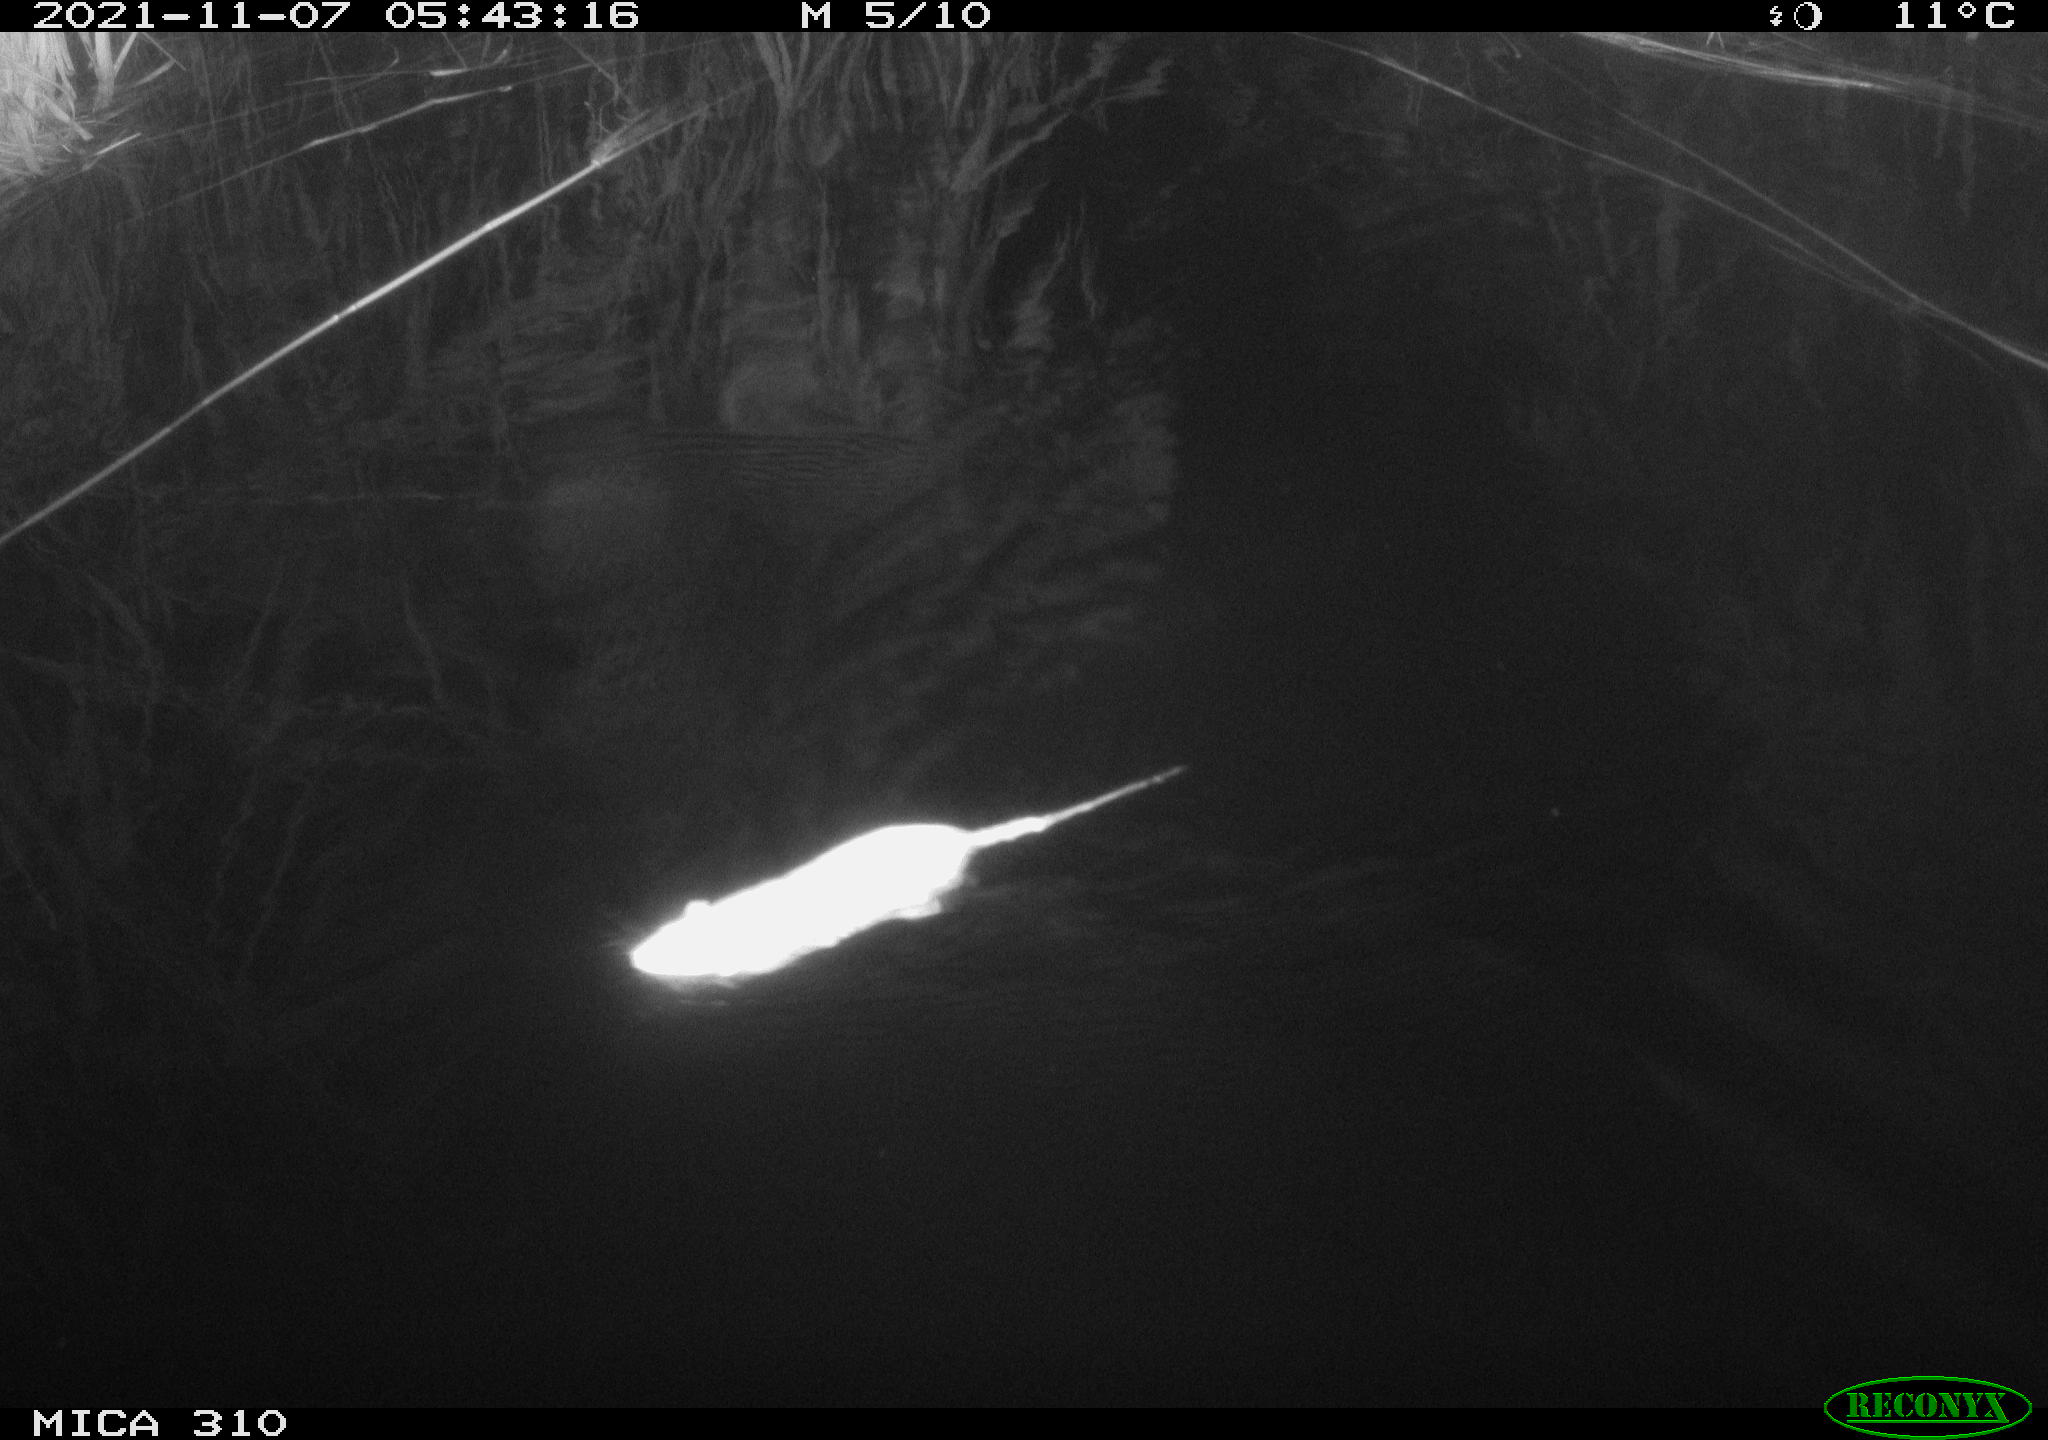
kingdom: Animalia
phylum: Chordata
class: Mammalia
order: Rodentia
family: Muridae
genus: Rattus
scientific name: Rattus norvegicus
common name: Brown rat
